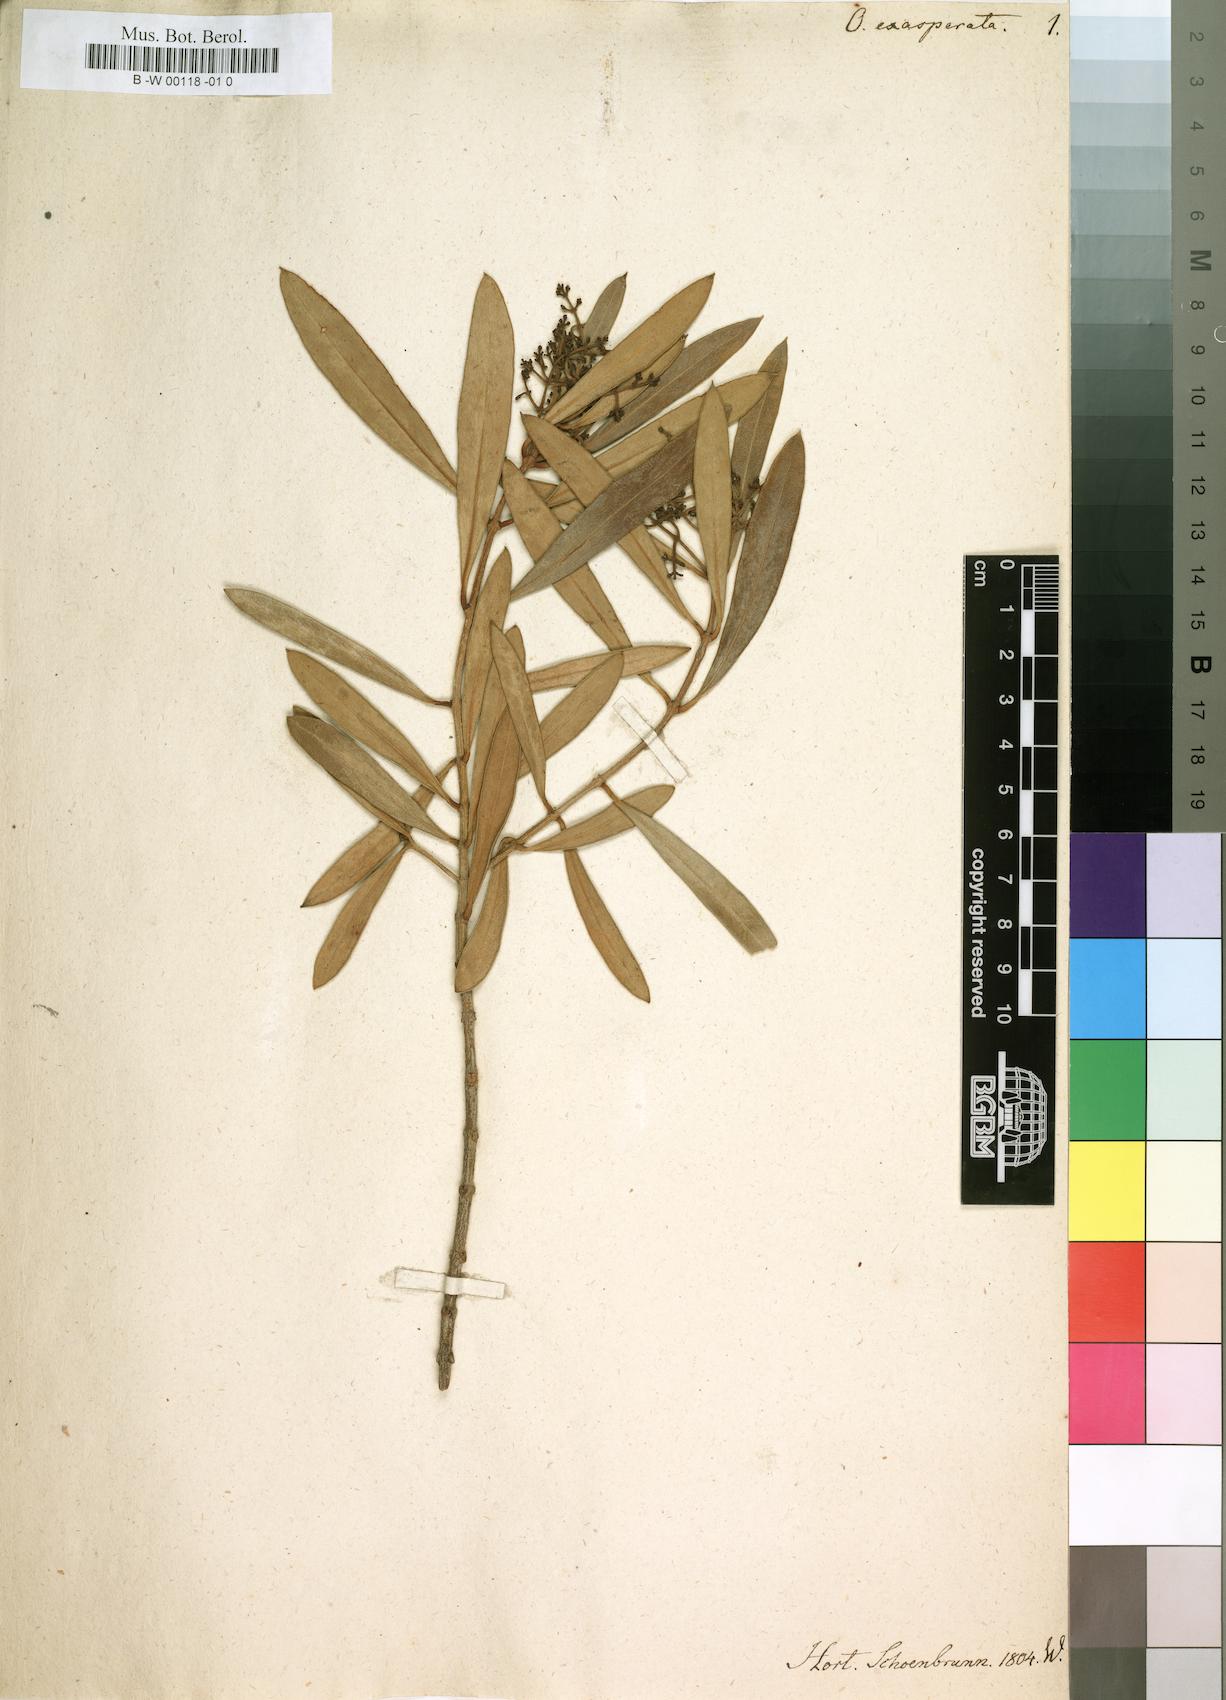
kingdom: Plantae
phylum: Tracheophyta
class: Magnoliopsida
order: Lamiales
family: Oleaceae
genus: Olea
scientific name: Olea exasperata
